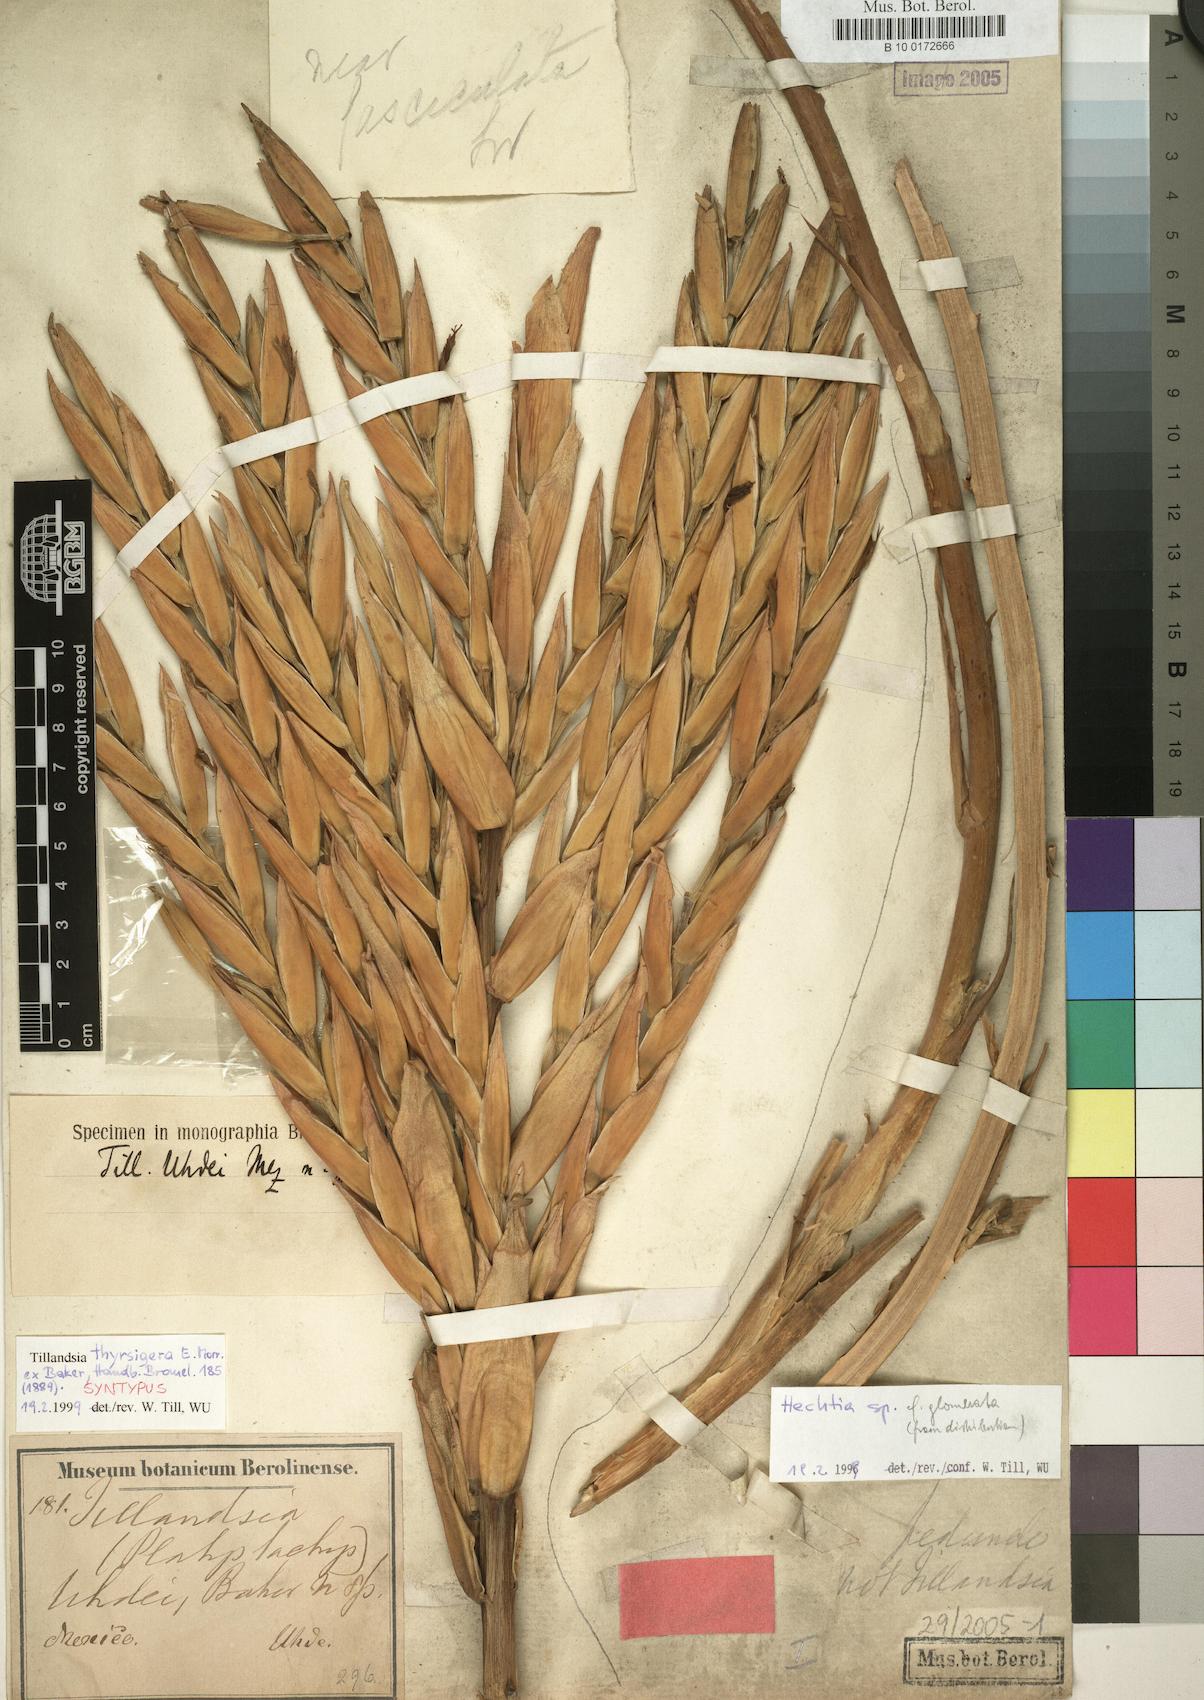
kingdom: Plantae
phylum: Tracheophyta
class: Liliopsida
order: Poales
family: Bromeliaceae
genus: Tillandsia
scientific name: Tillandsia thyrsigera
